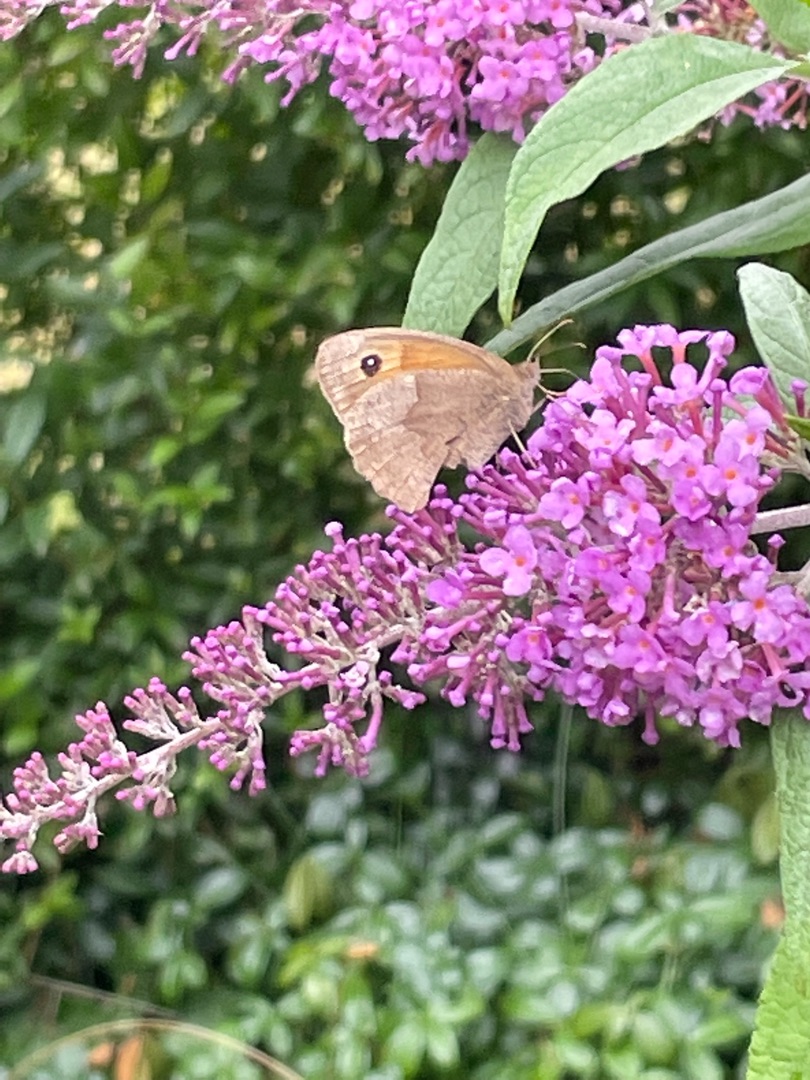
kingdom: Animalia
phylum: Arthropoda
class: Insecta
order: Lepidoptera
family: Nymphalidae
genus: Maniola
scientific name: Maniola jurtina
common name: Græsrandøje
